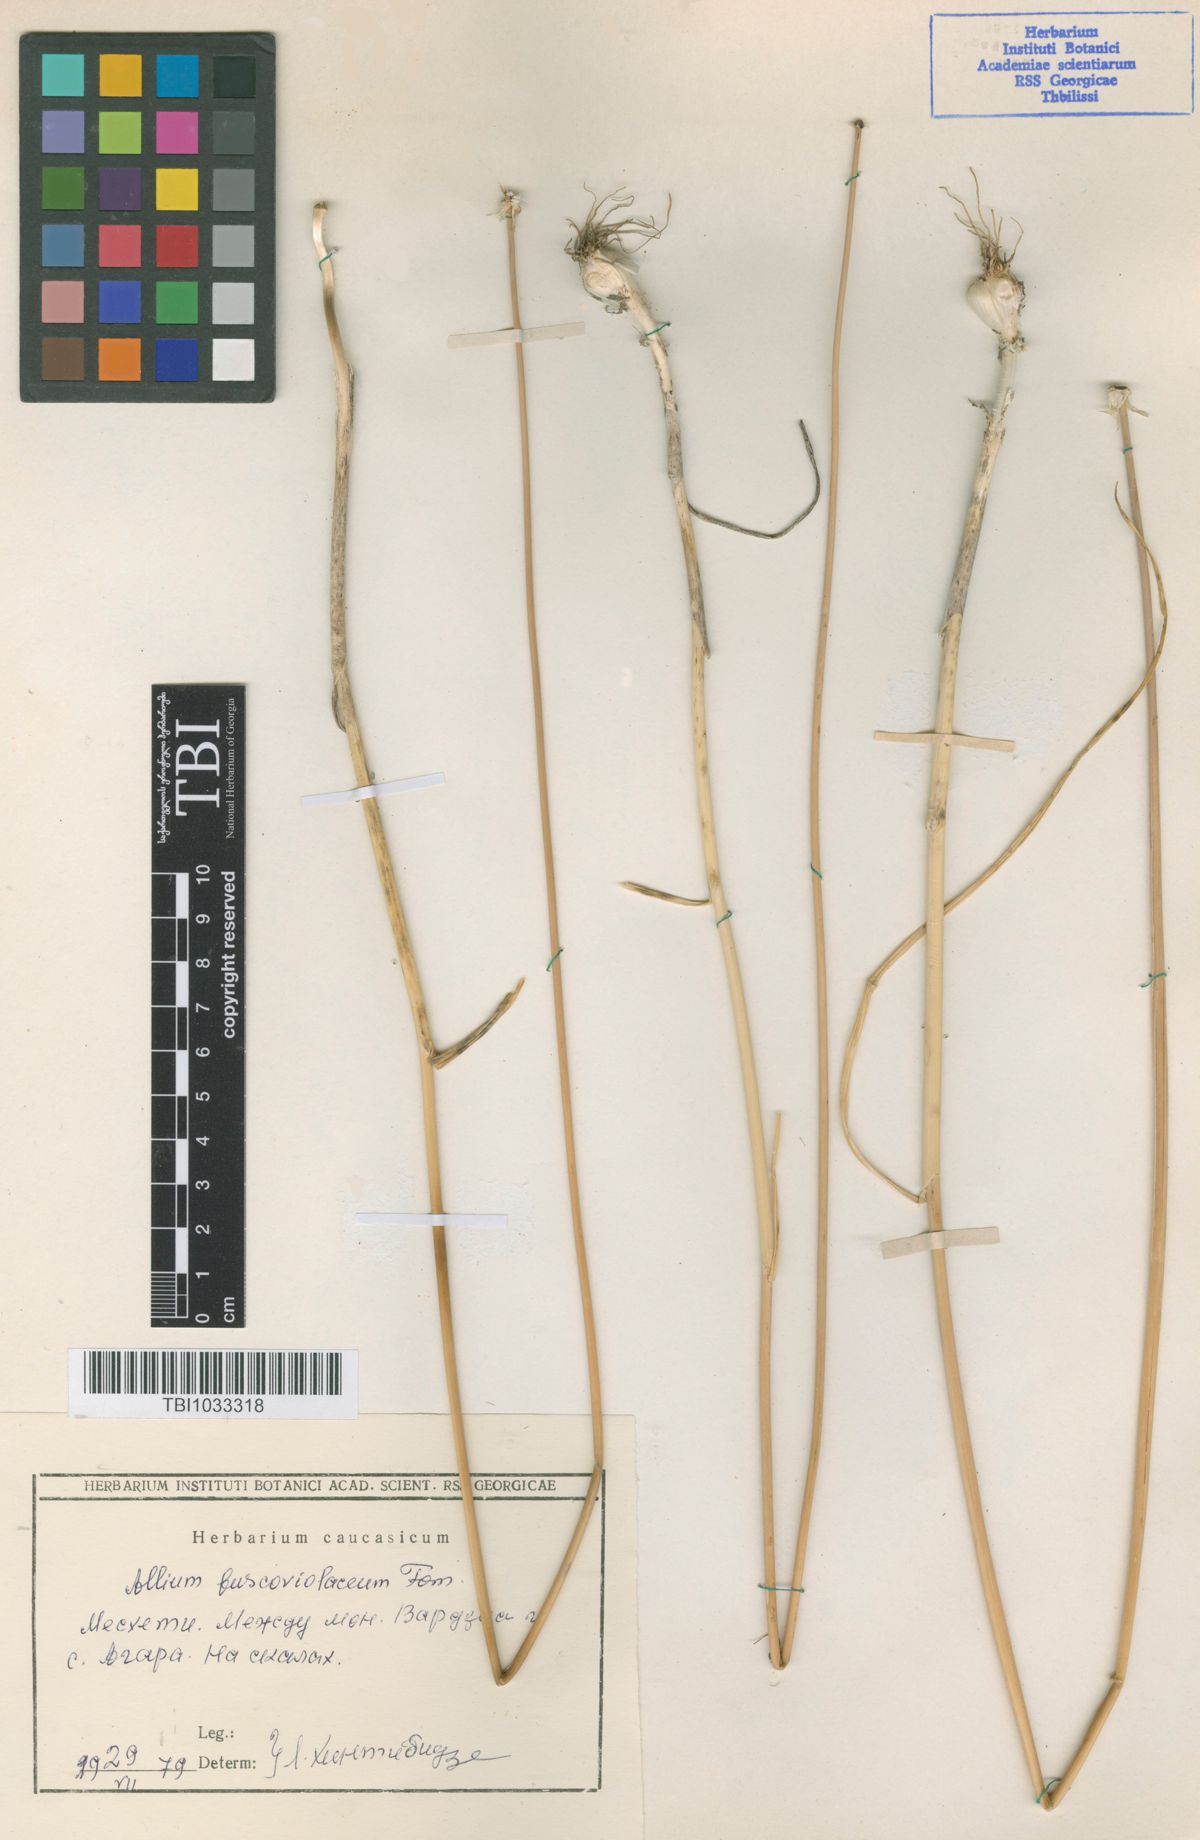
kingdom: Plantae
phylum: Tracheophyta
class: Liliopsida
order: Asparagales
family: Amaryllidaceae
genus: Allium
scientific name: Allium fuscoviolaceum
